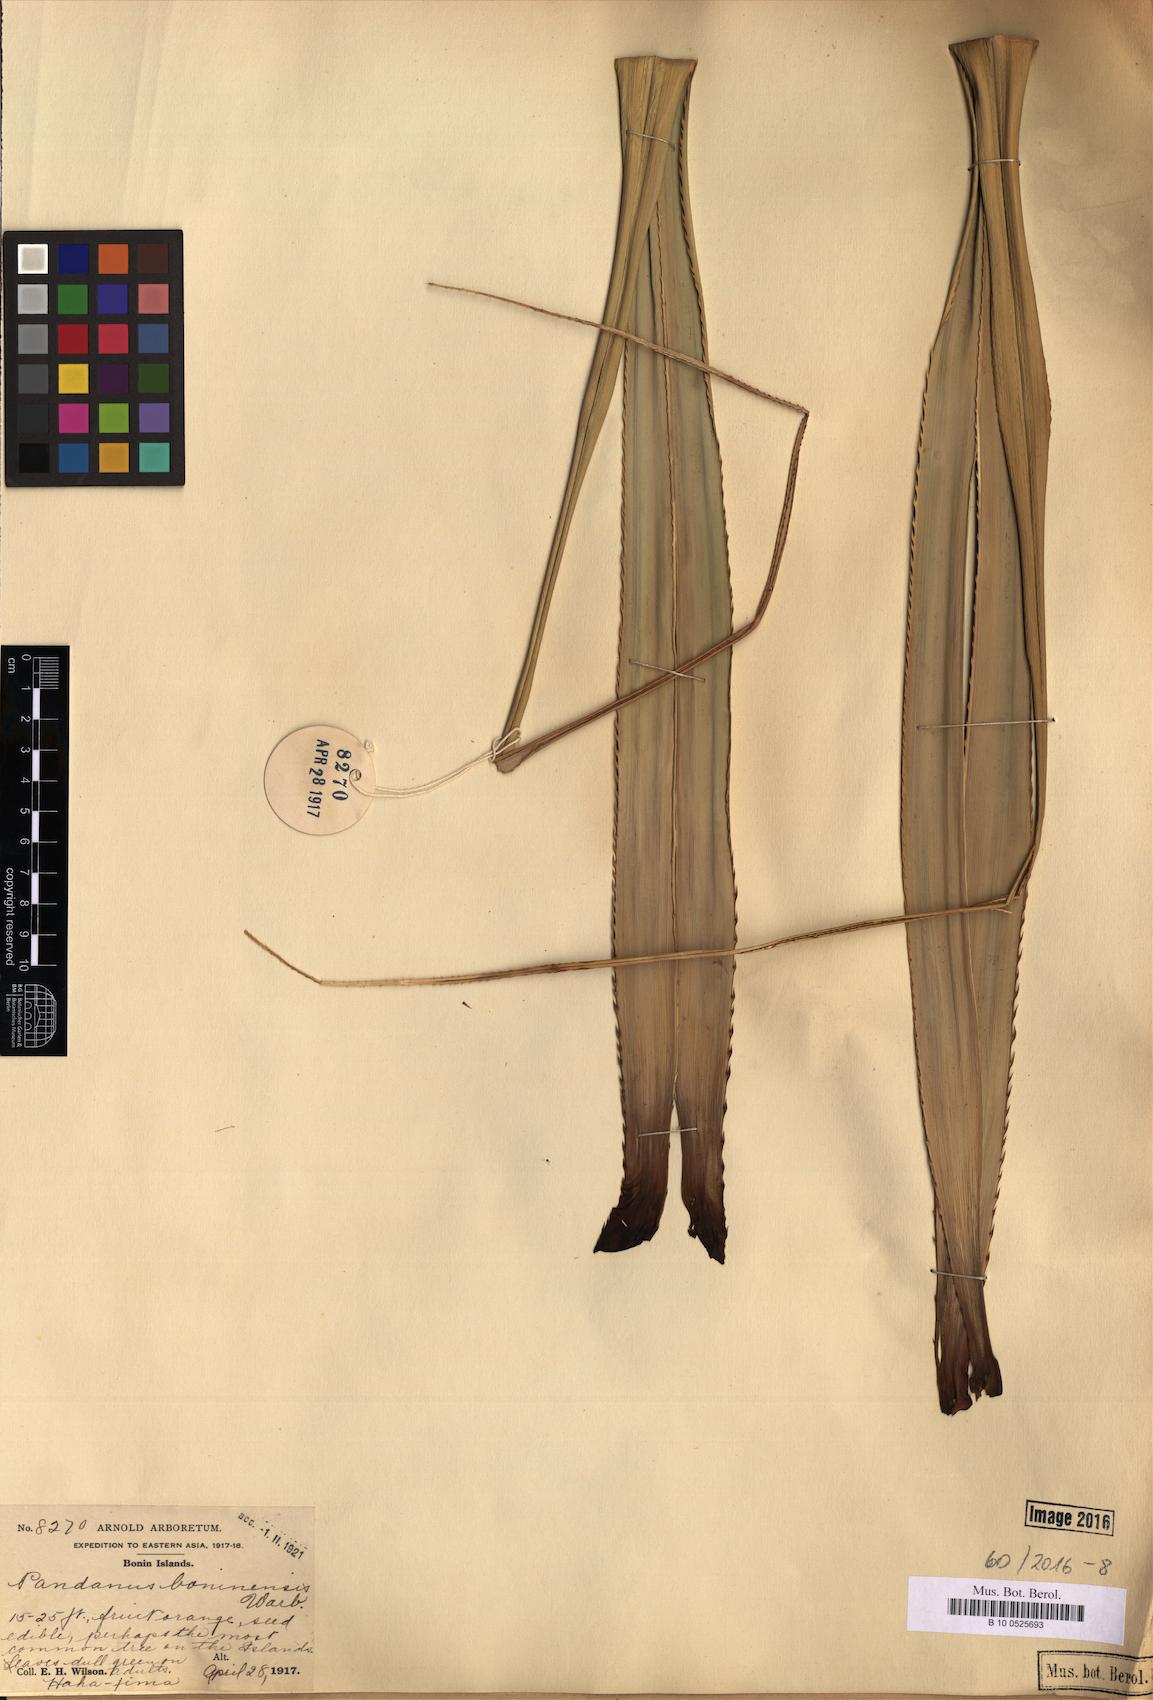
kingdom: Plantae
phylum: Tracheophyta
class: Liliopsida
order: Pandanales
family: Pandanaceae
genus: Pandanus
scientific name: Pandanus boninensis
